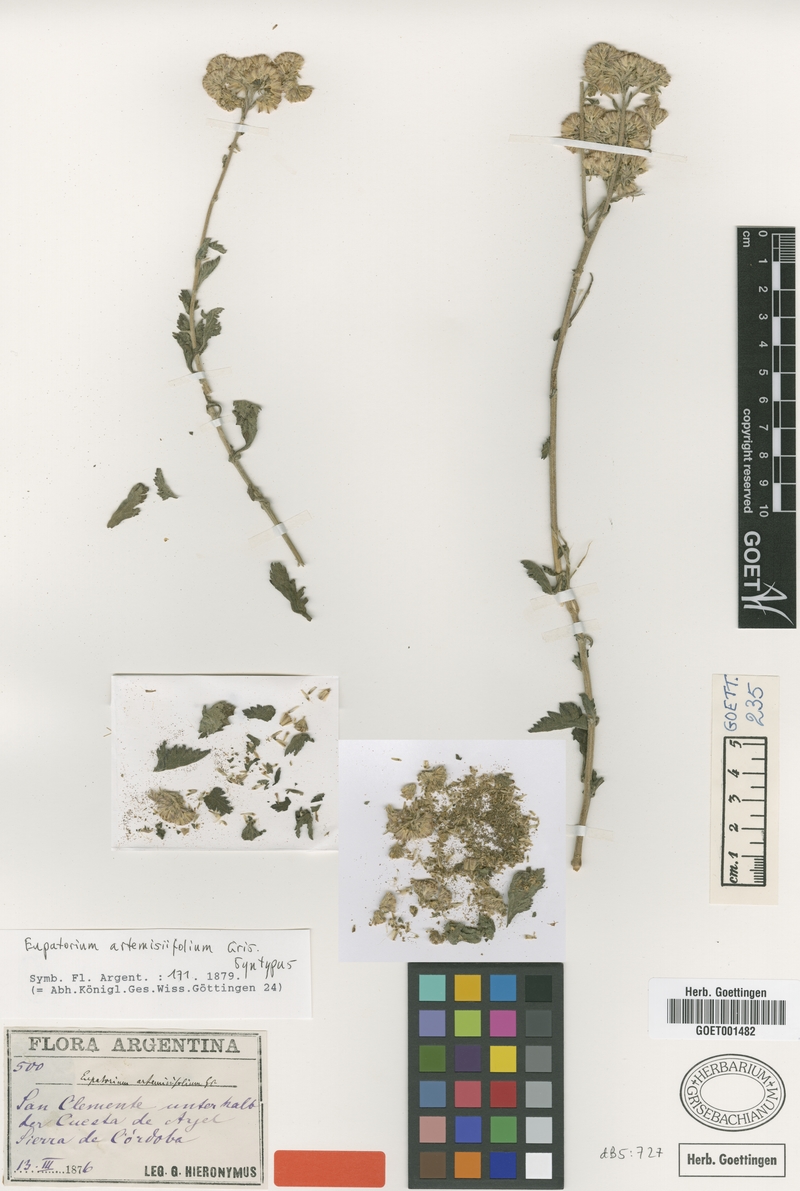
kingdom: Plantae
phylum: Tracheophyta
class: Magnoliopsida
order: Asterales
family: Asteraceae
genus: Gyptis
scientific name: Gyptis artemisifolia
